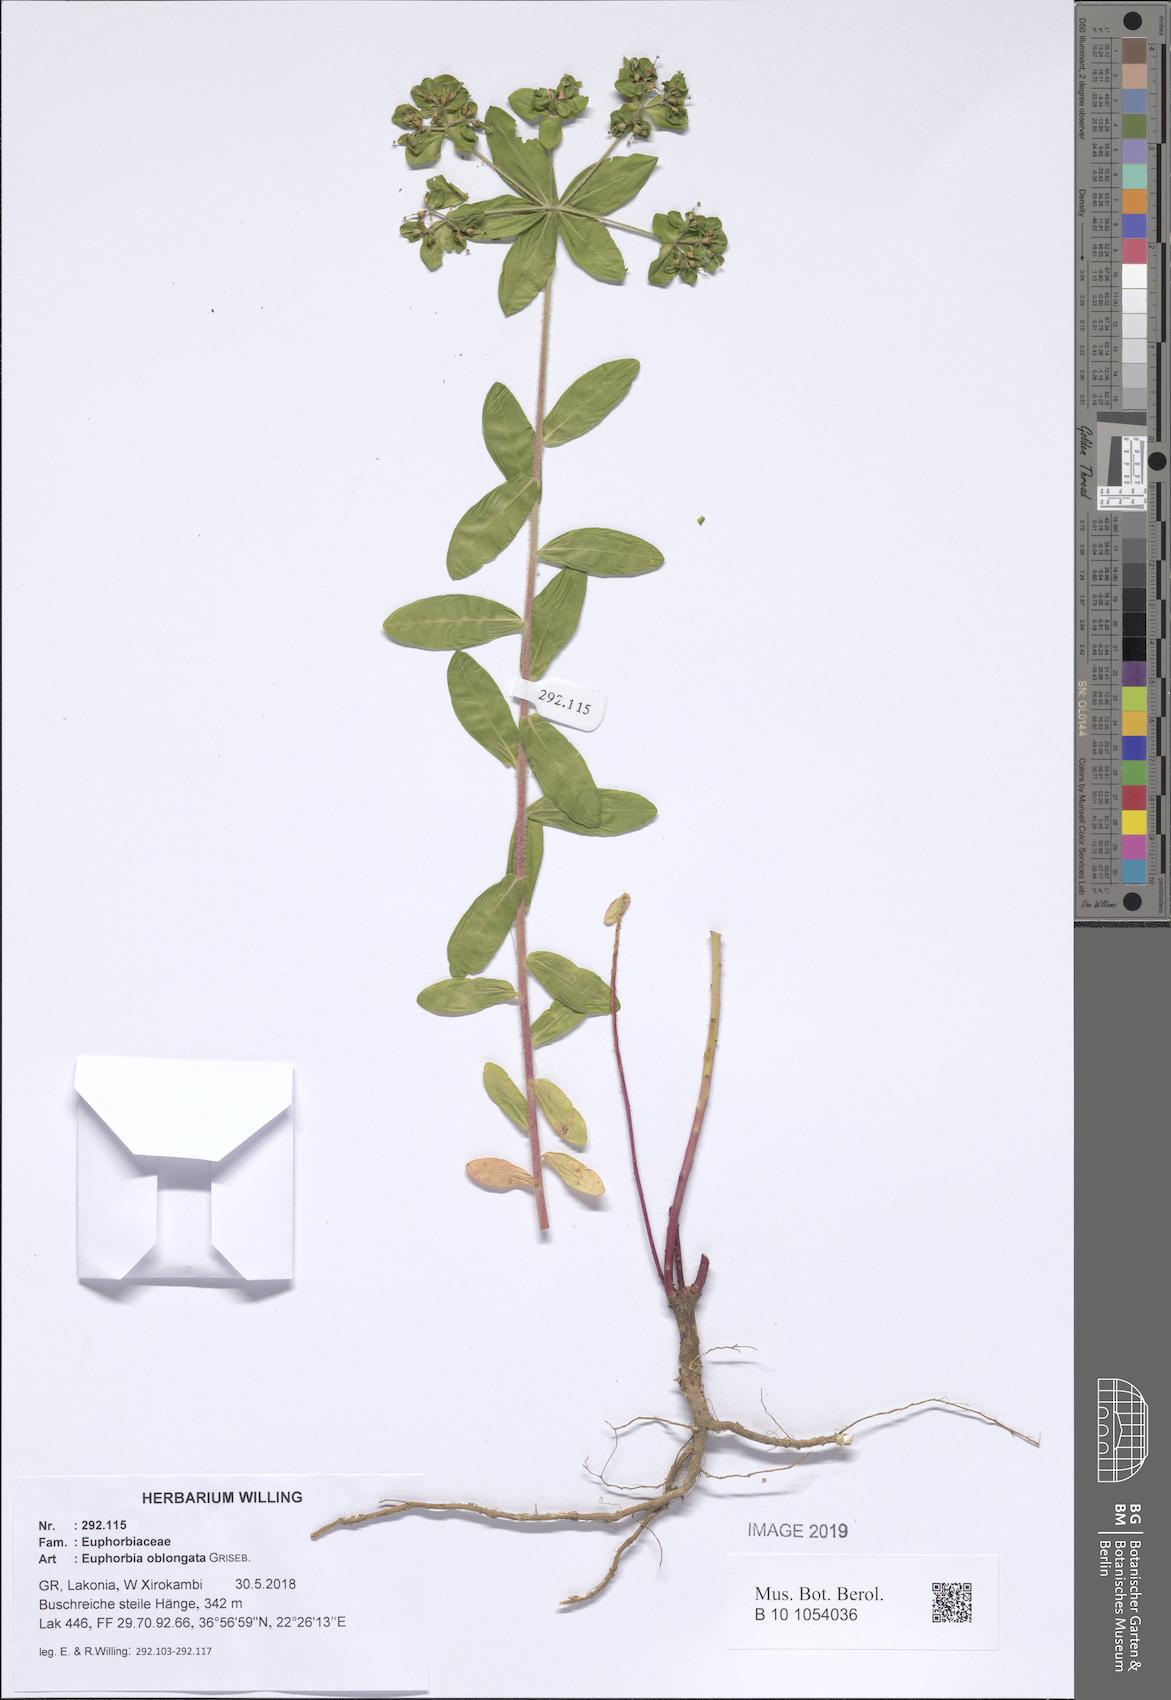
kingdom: Plantae
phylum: Tracheophyta
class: Magnoliopsida
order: Malpighiales
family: Euphorbiaceae
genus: Euphorbia
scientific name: Euphorbia oblongata
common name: Balkan spurge
